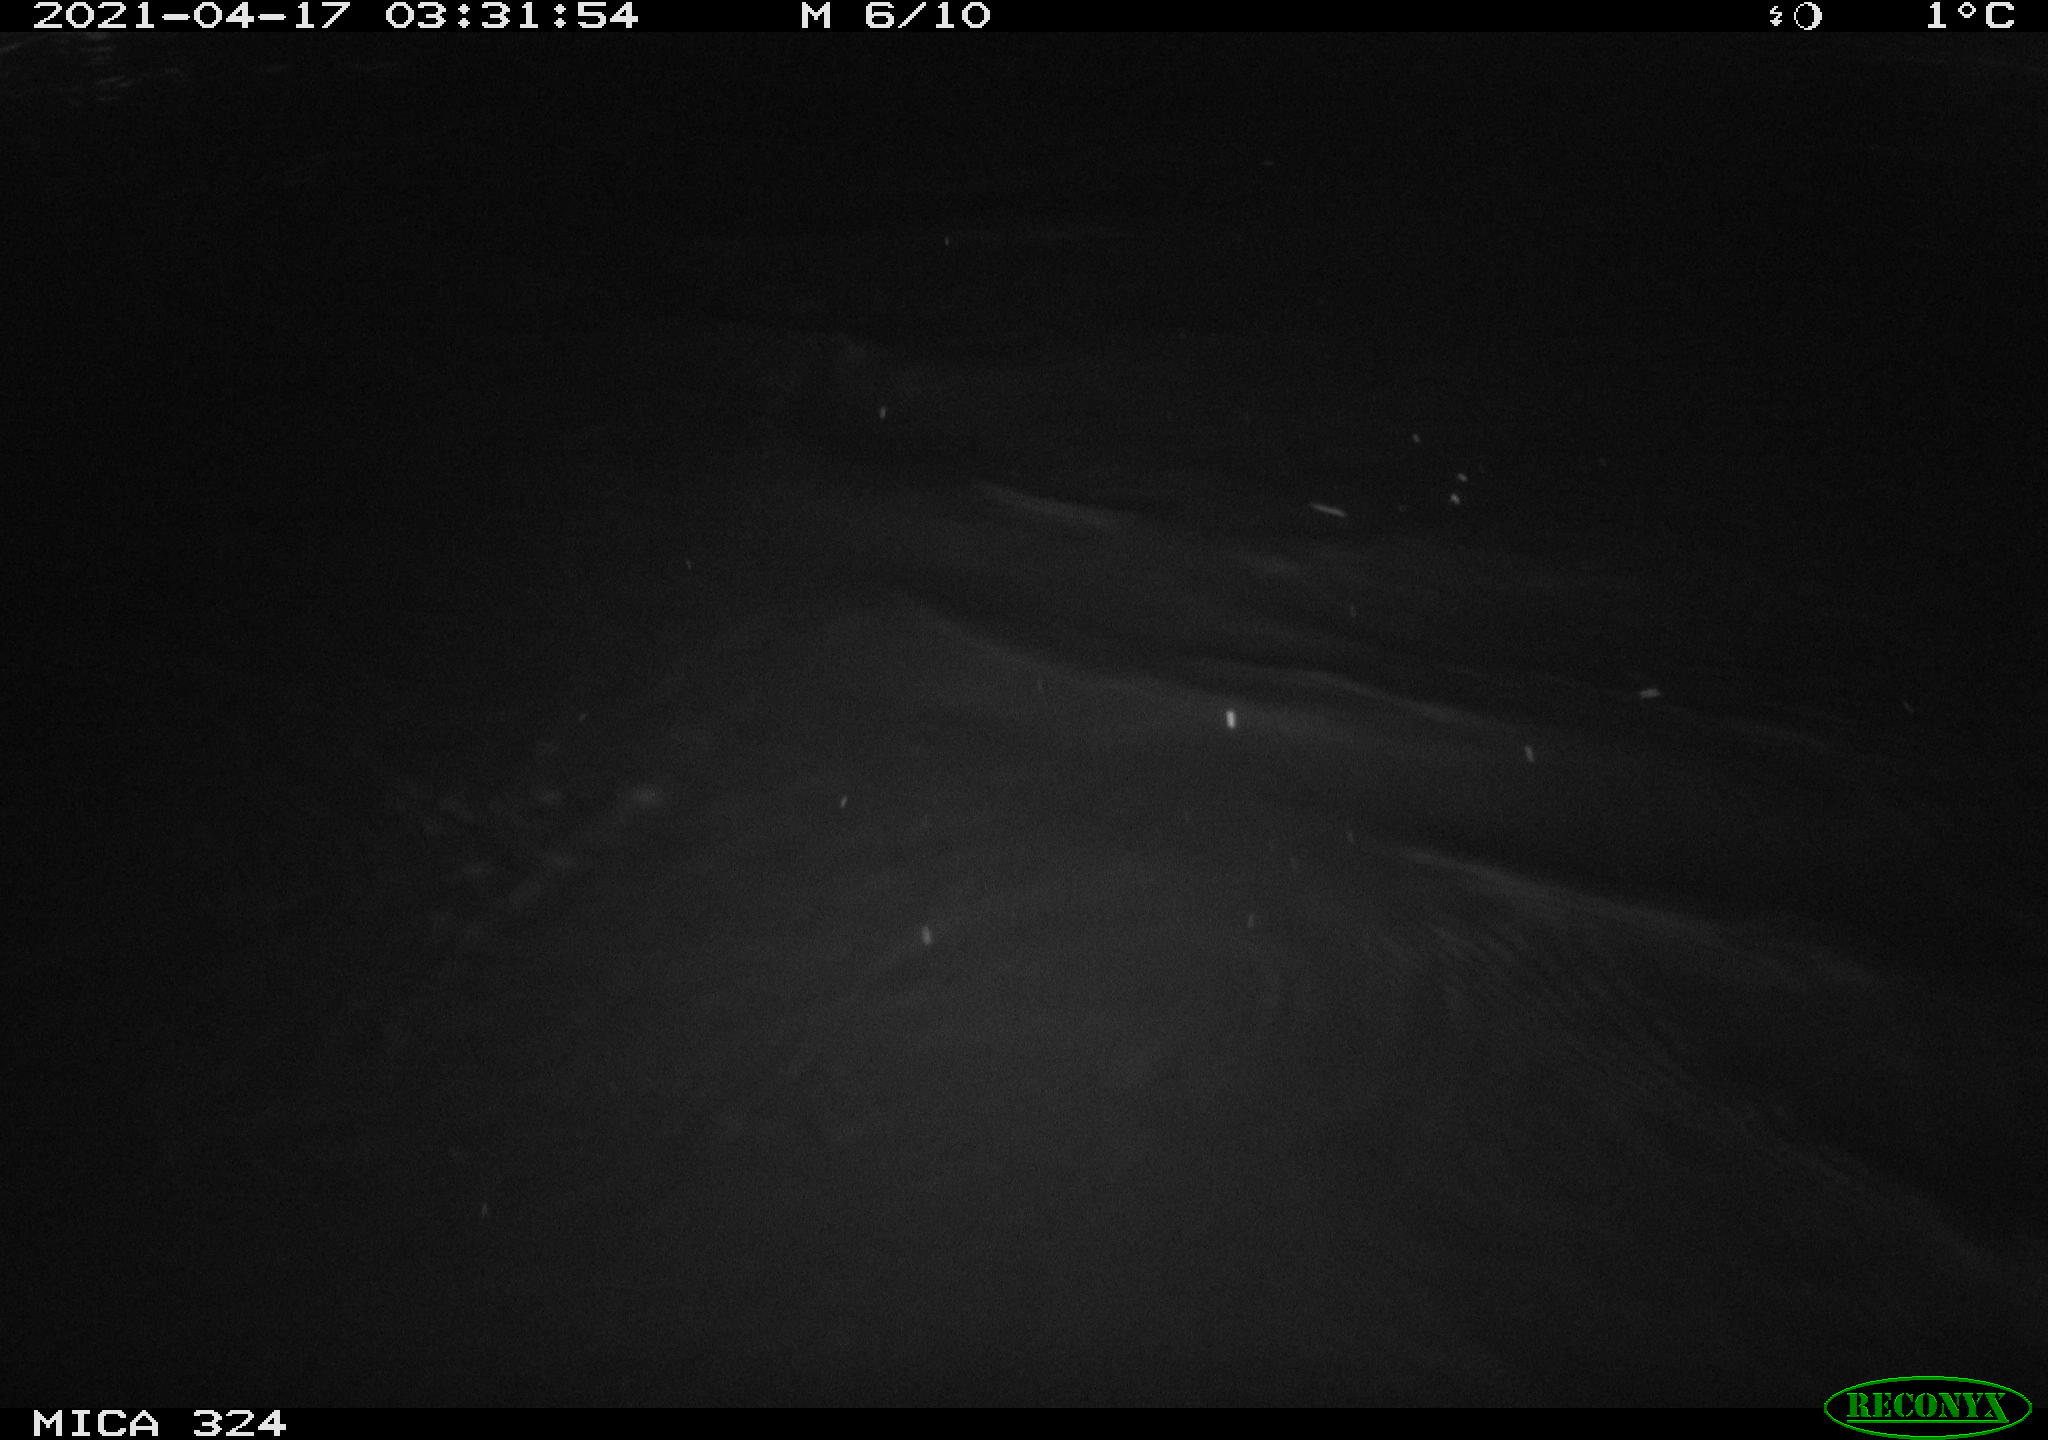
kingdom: Animalia
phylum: Chordata
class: Aves
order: Anseriformes
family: Anatidae
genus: Anas
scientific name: Anas platyrhynchos
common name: Mallard
